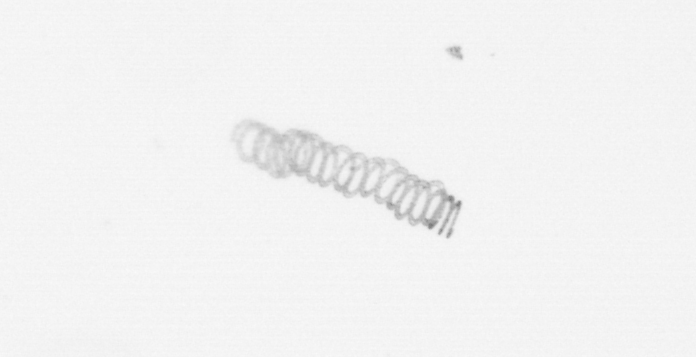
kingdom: Chromista
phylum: Ochrophyta
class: Bacillariophyceae
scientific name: Bacillariophyceae
